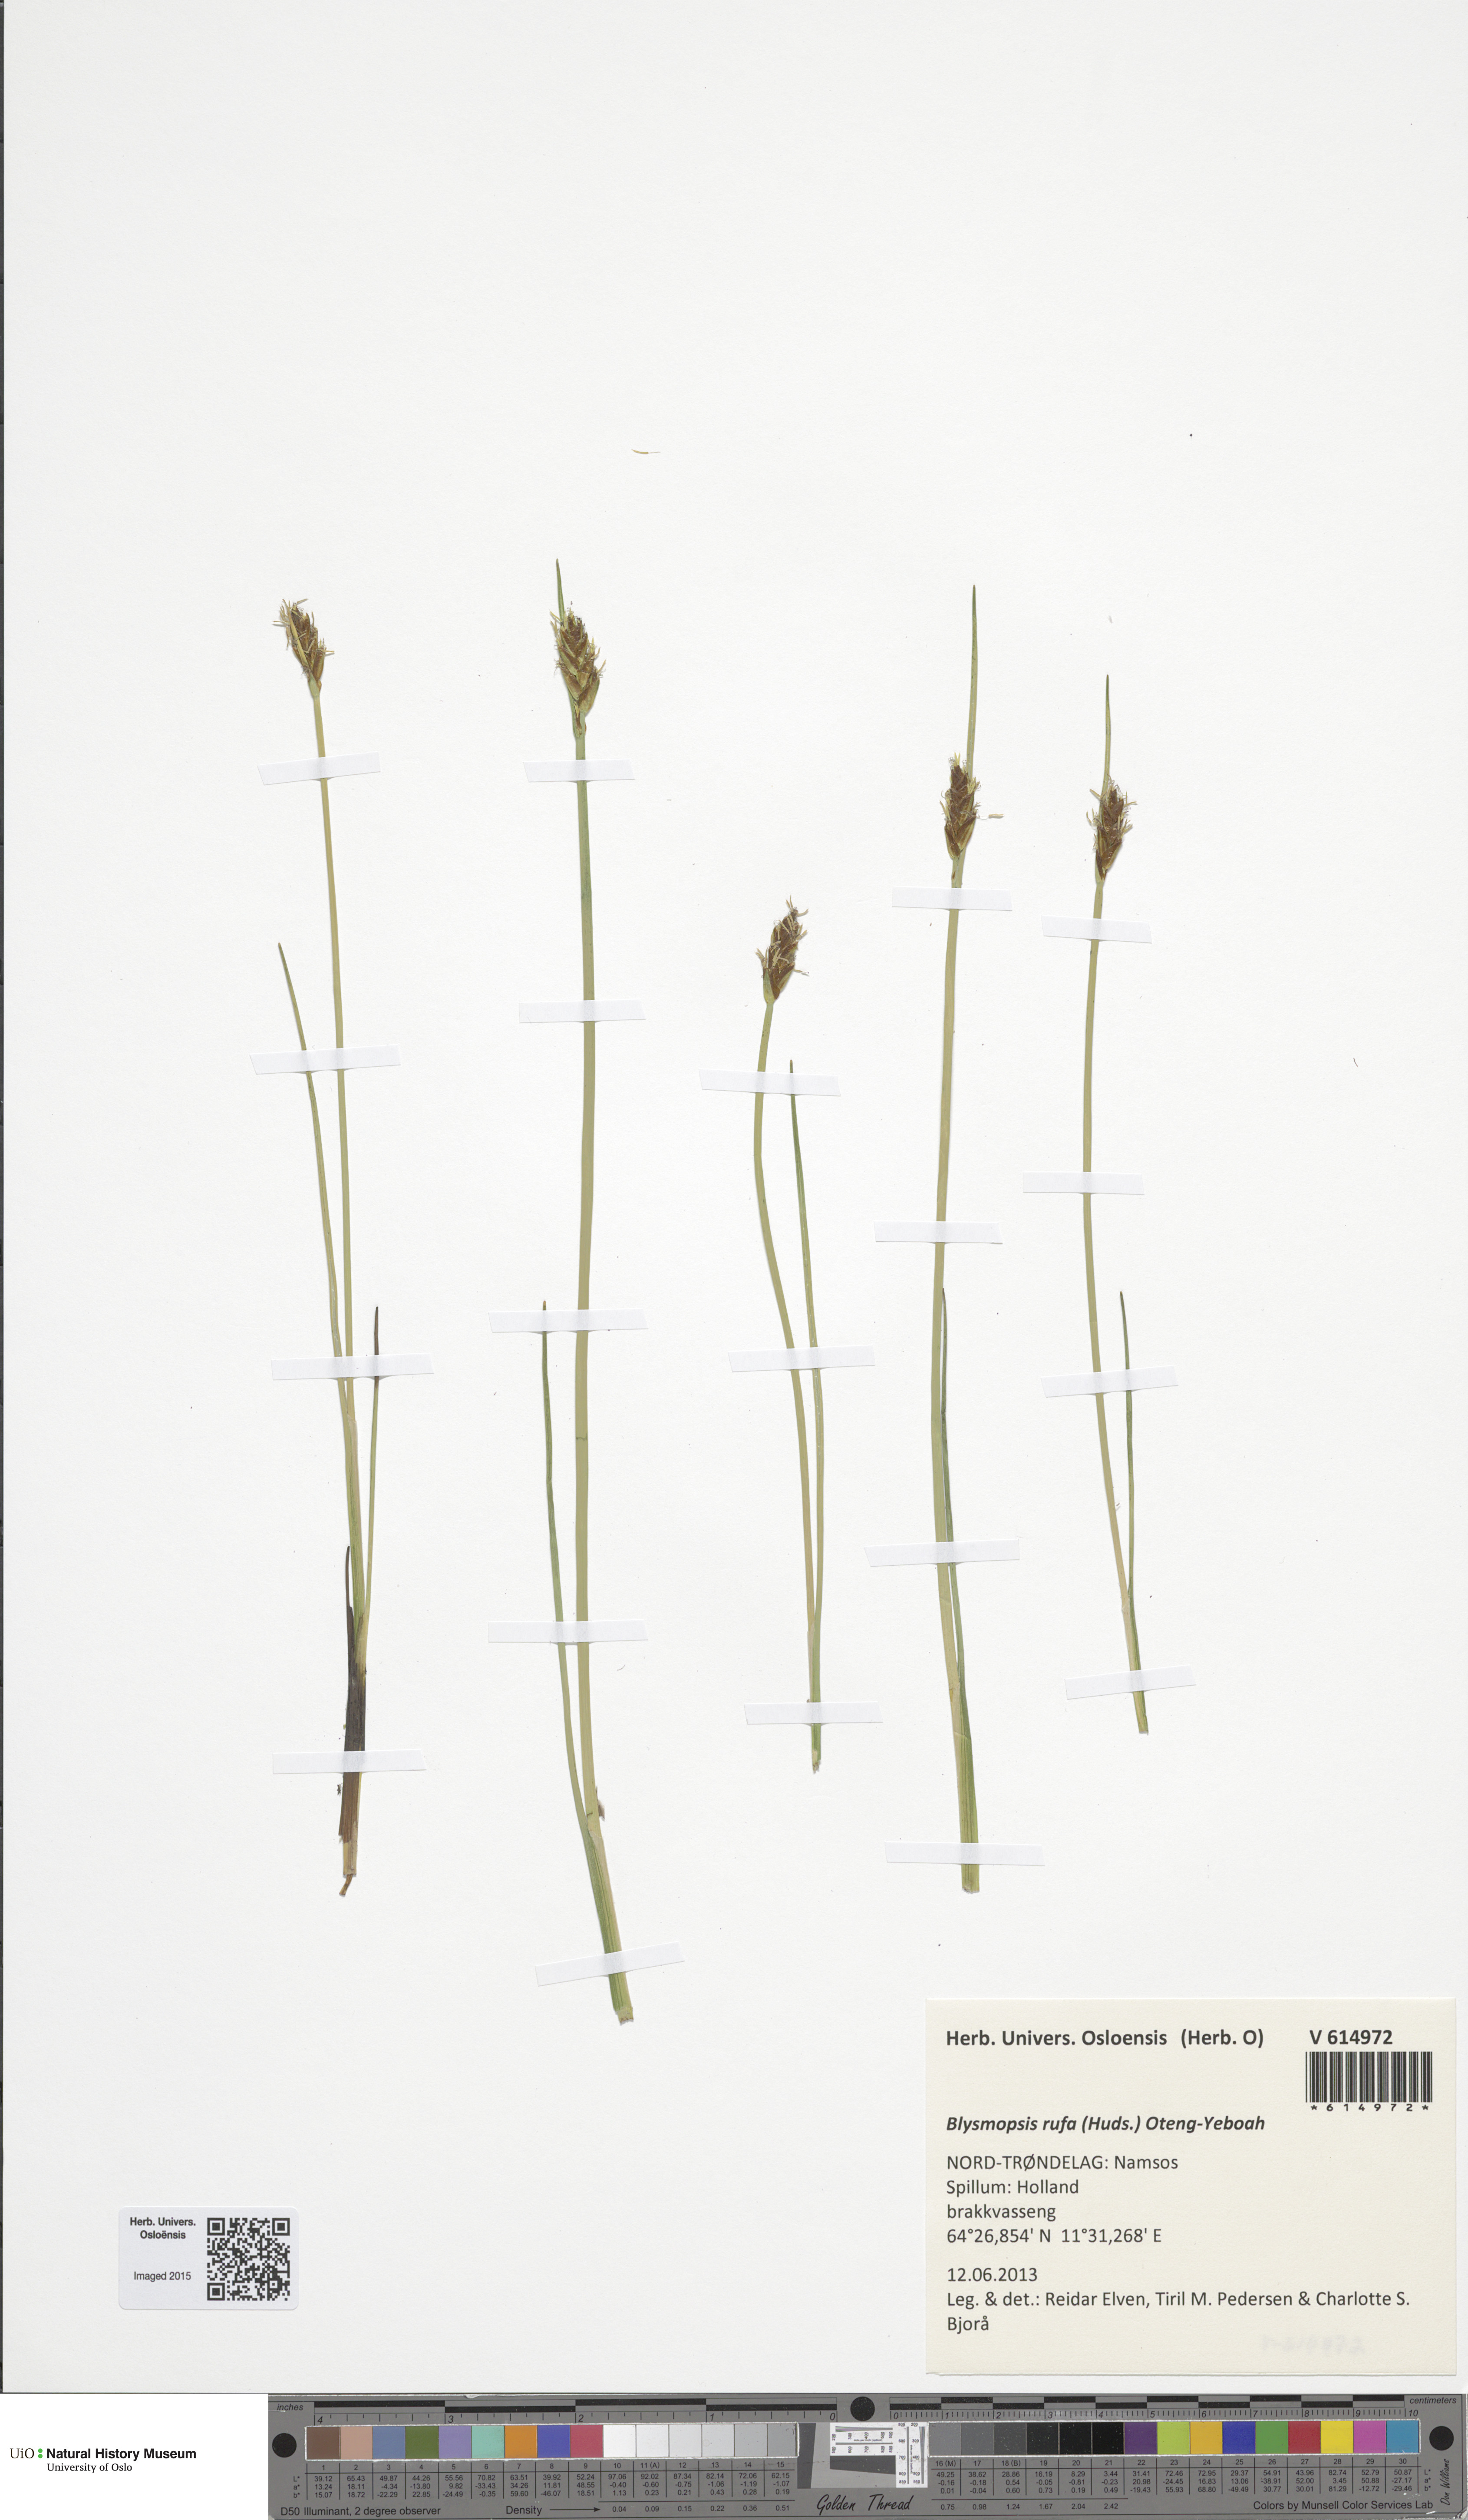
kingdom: Plantae
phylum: Tracheophyta
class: Liliopsida
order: Poales
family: Cyperaceae
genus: Blysmus
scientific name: Blysmus rufus
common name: Saltmarsh flat-sedge
